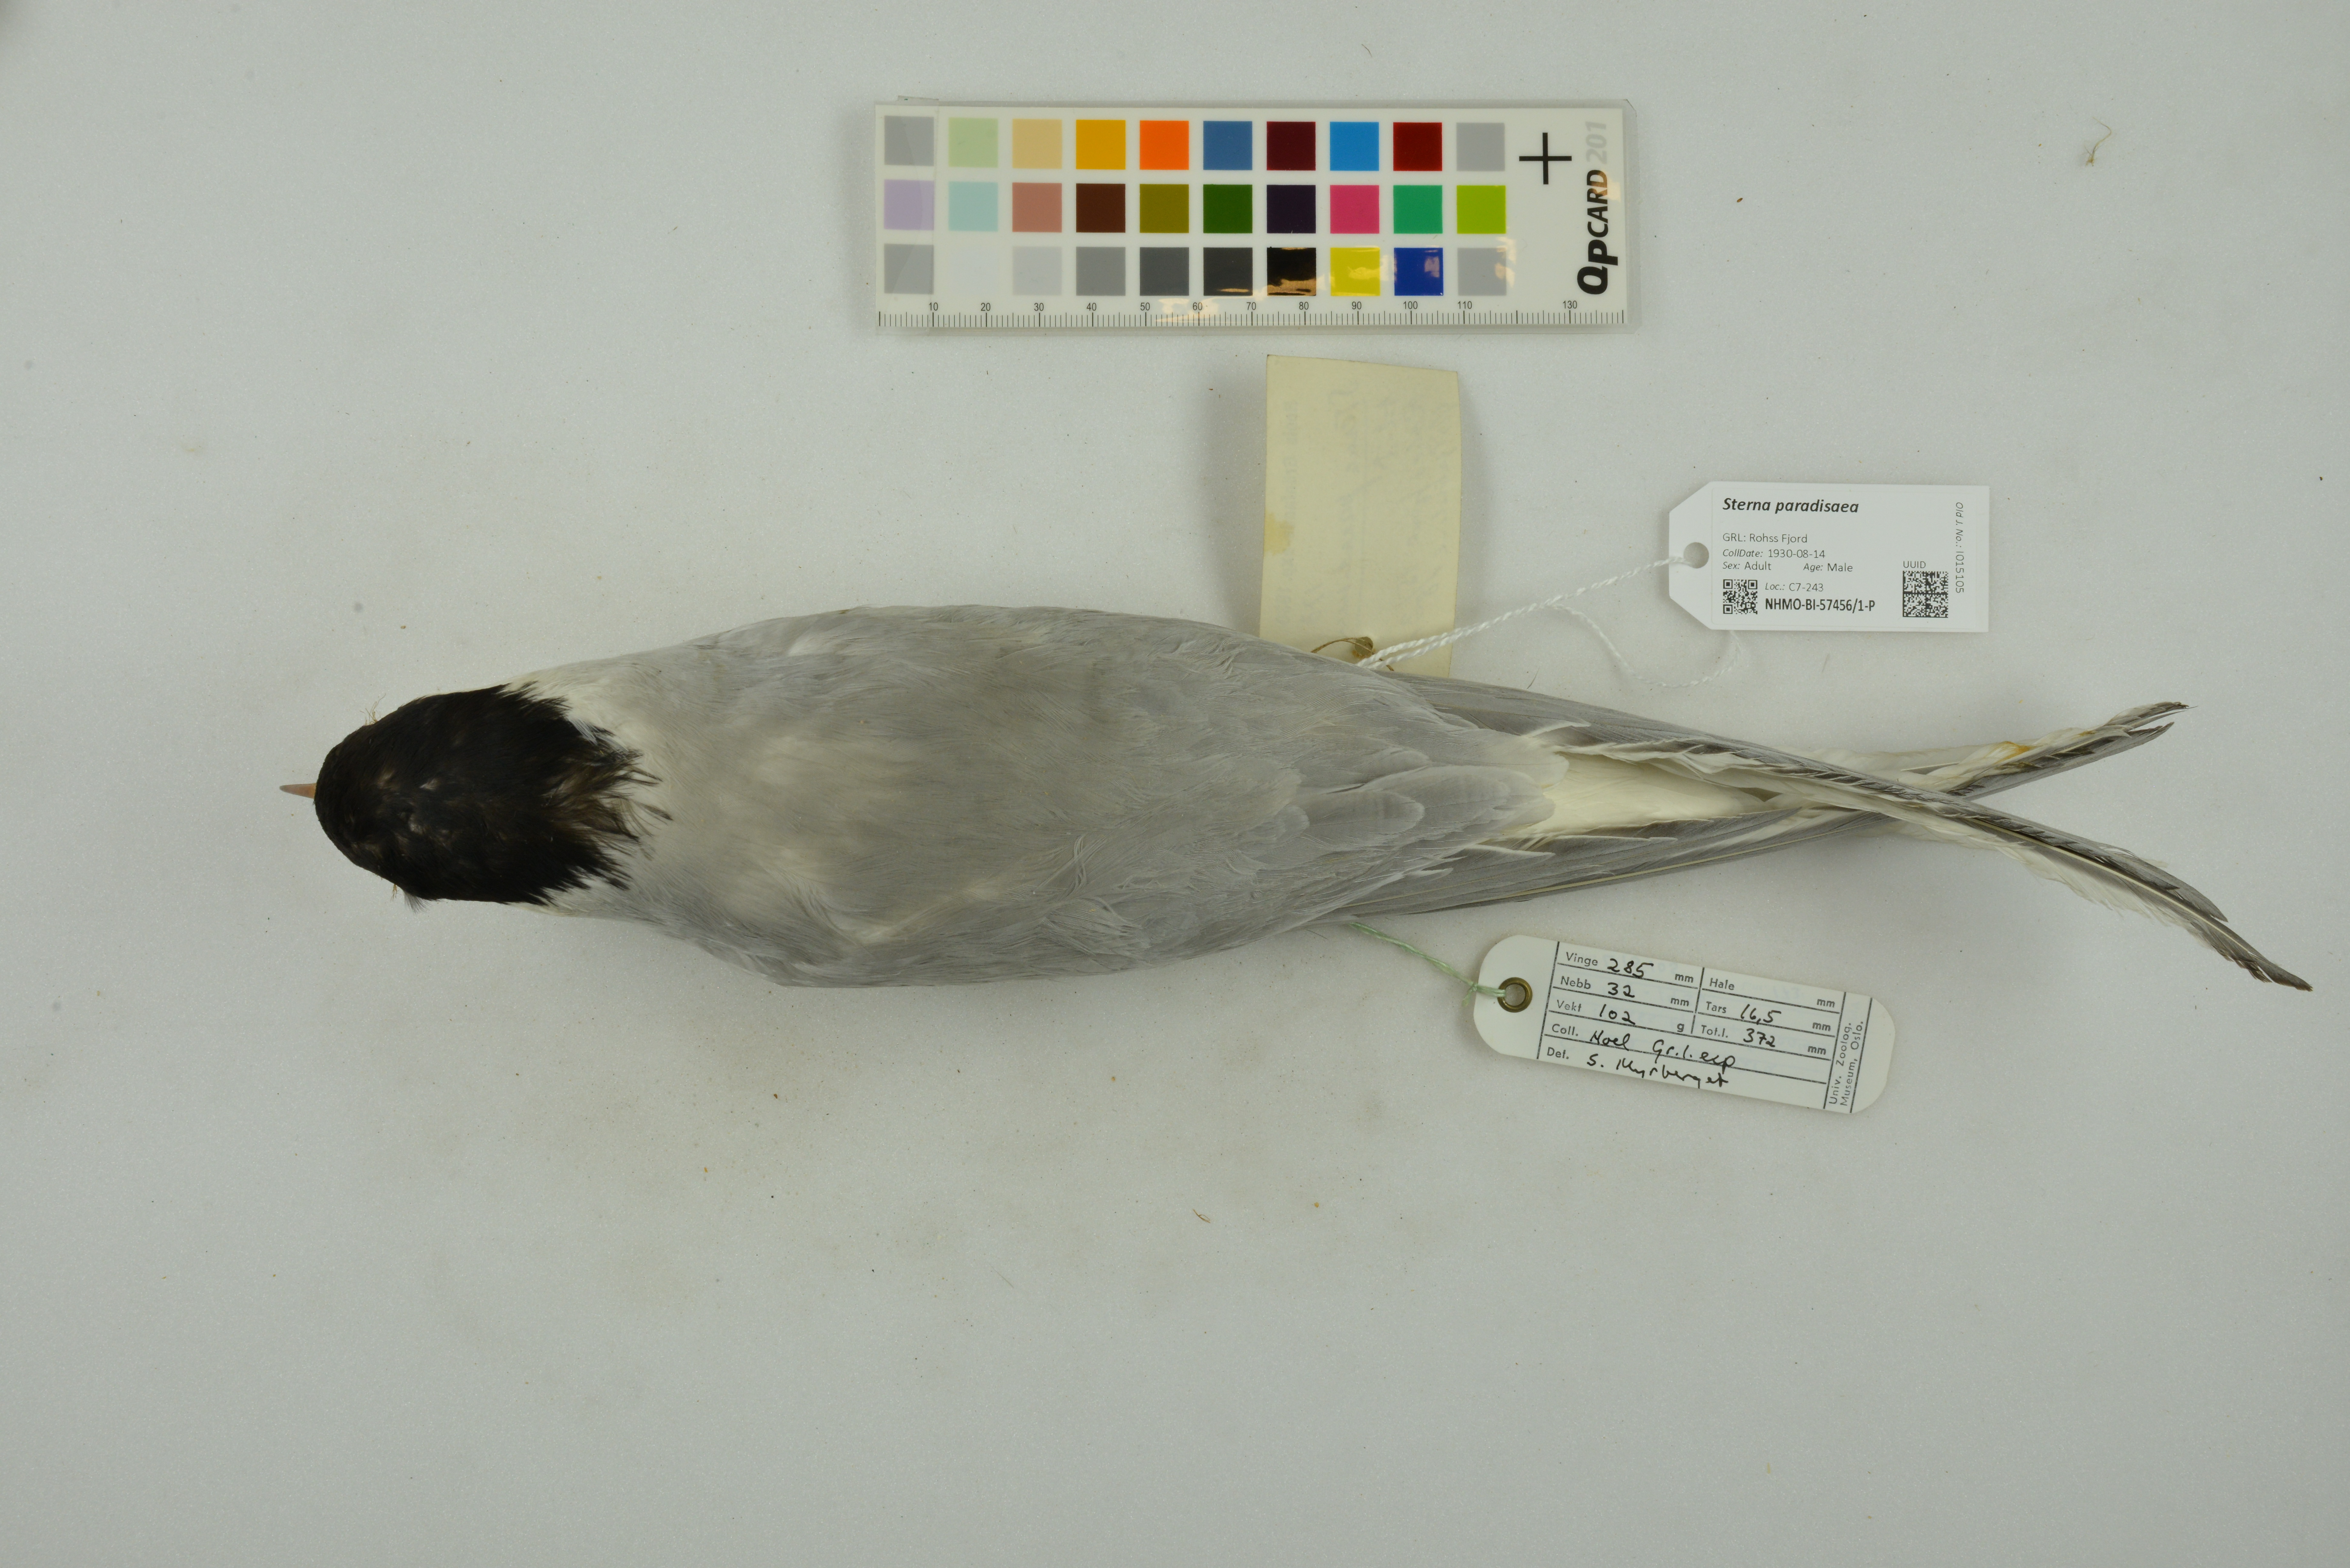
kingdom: Animalia
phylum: Chordata
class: Aves
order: Charadriiformes
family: Laridae
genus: Sterna
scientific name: Sterna paradisaea
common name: Arctic tern
